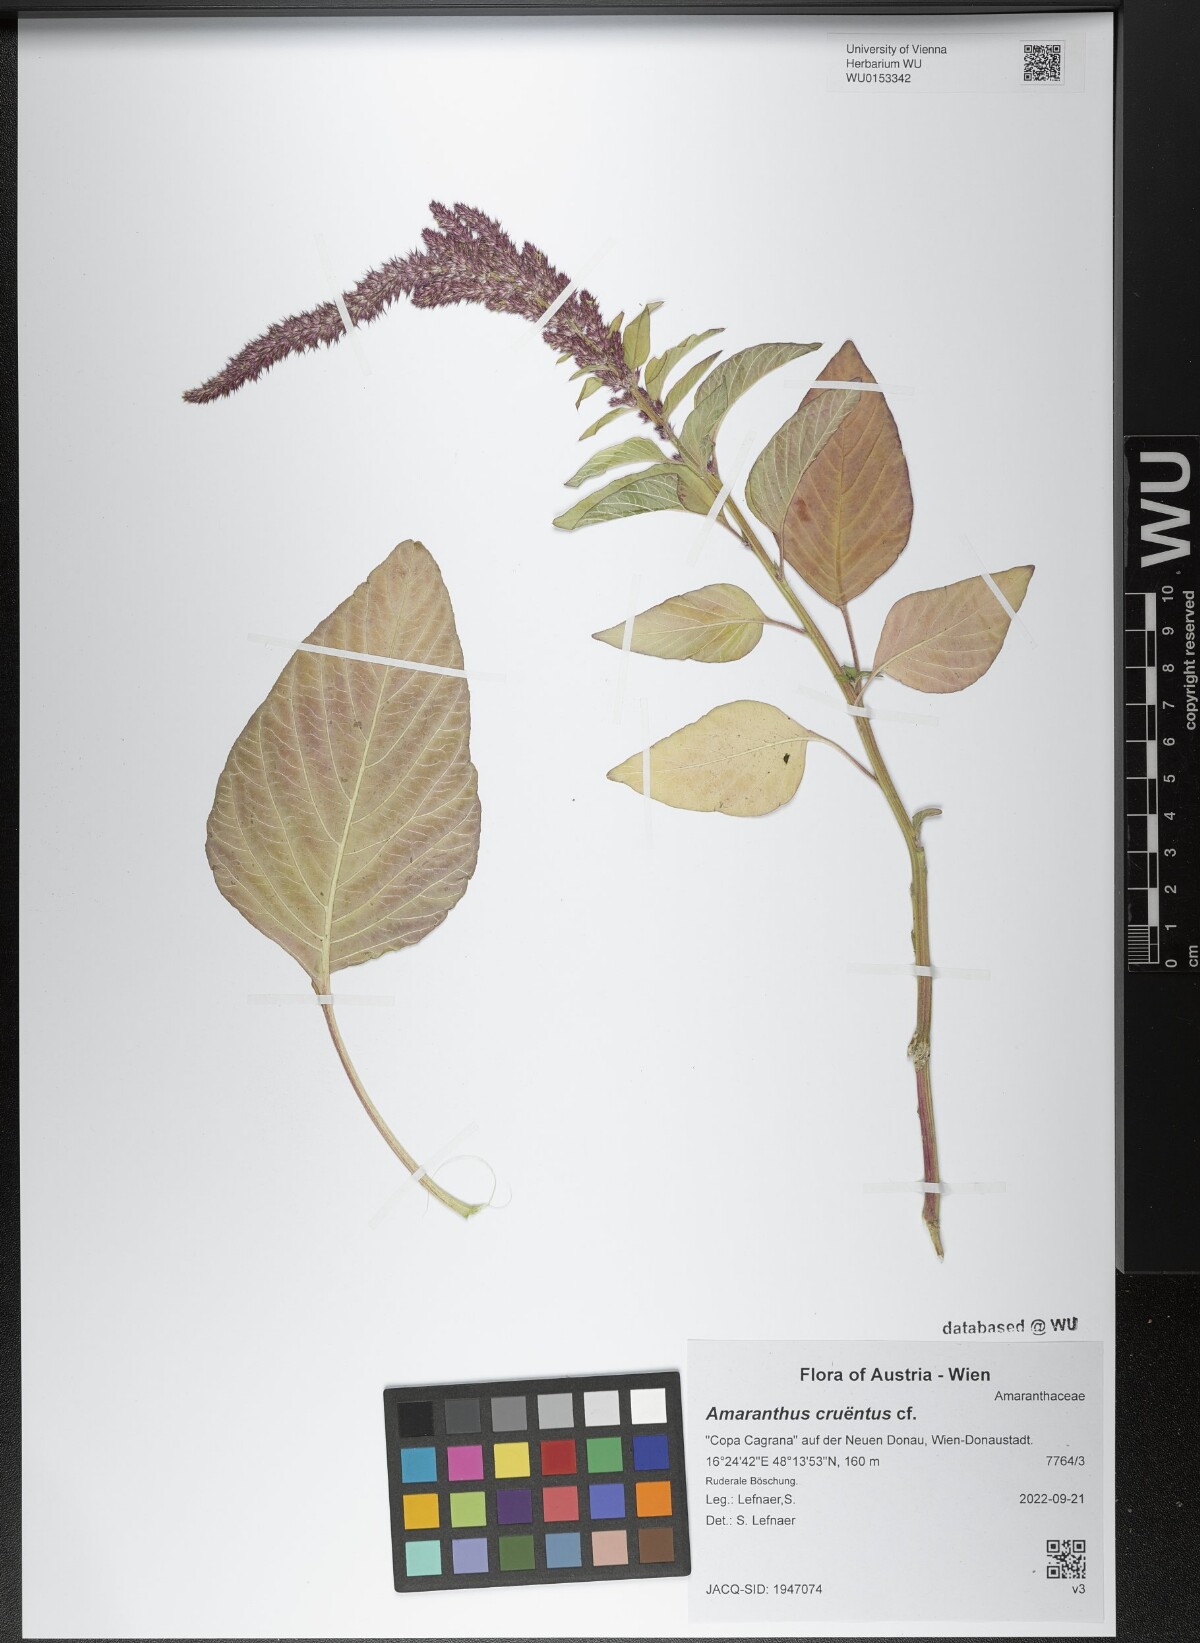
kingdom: Plantae
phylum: Tracheophyta
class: Magnoliopsida
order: Caryophyllales
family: Amaranthaceae
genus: Amaranthus
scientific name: Amaranthus cruentus
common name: Purple amaranth
